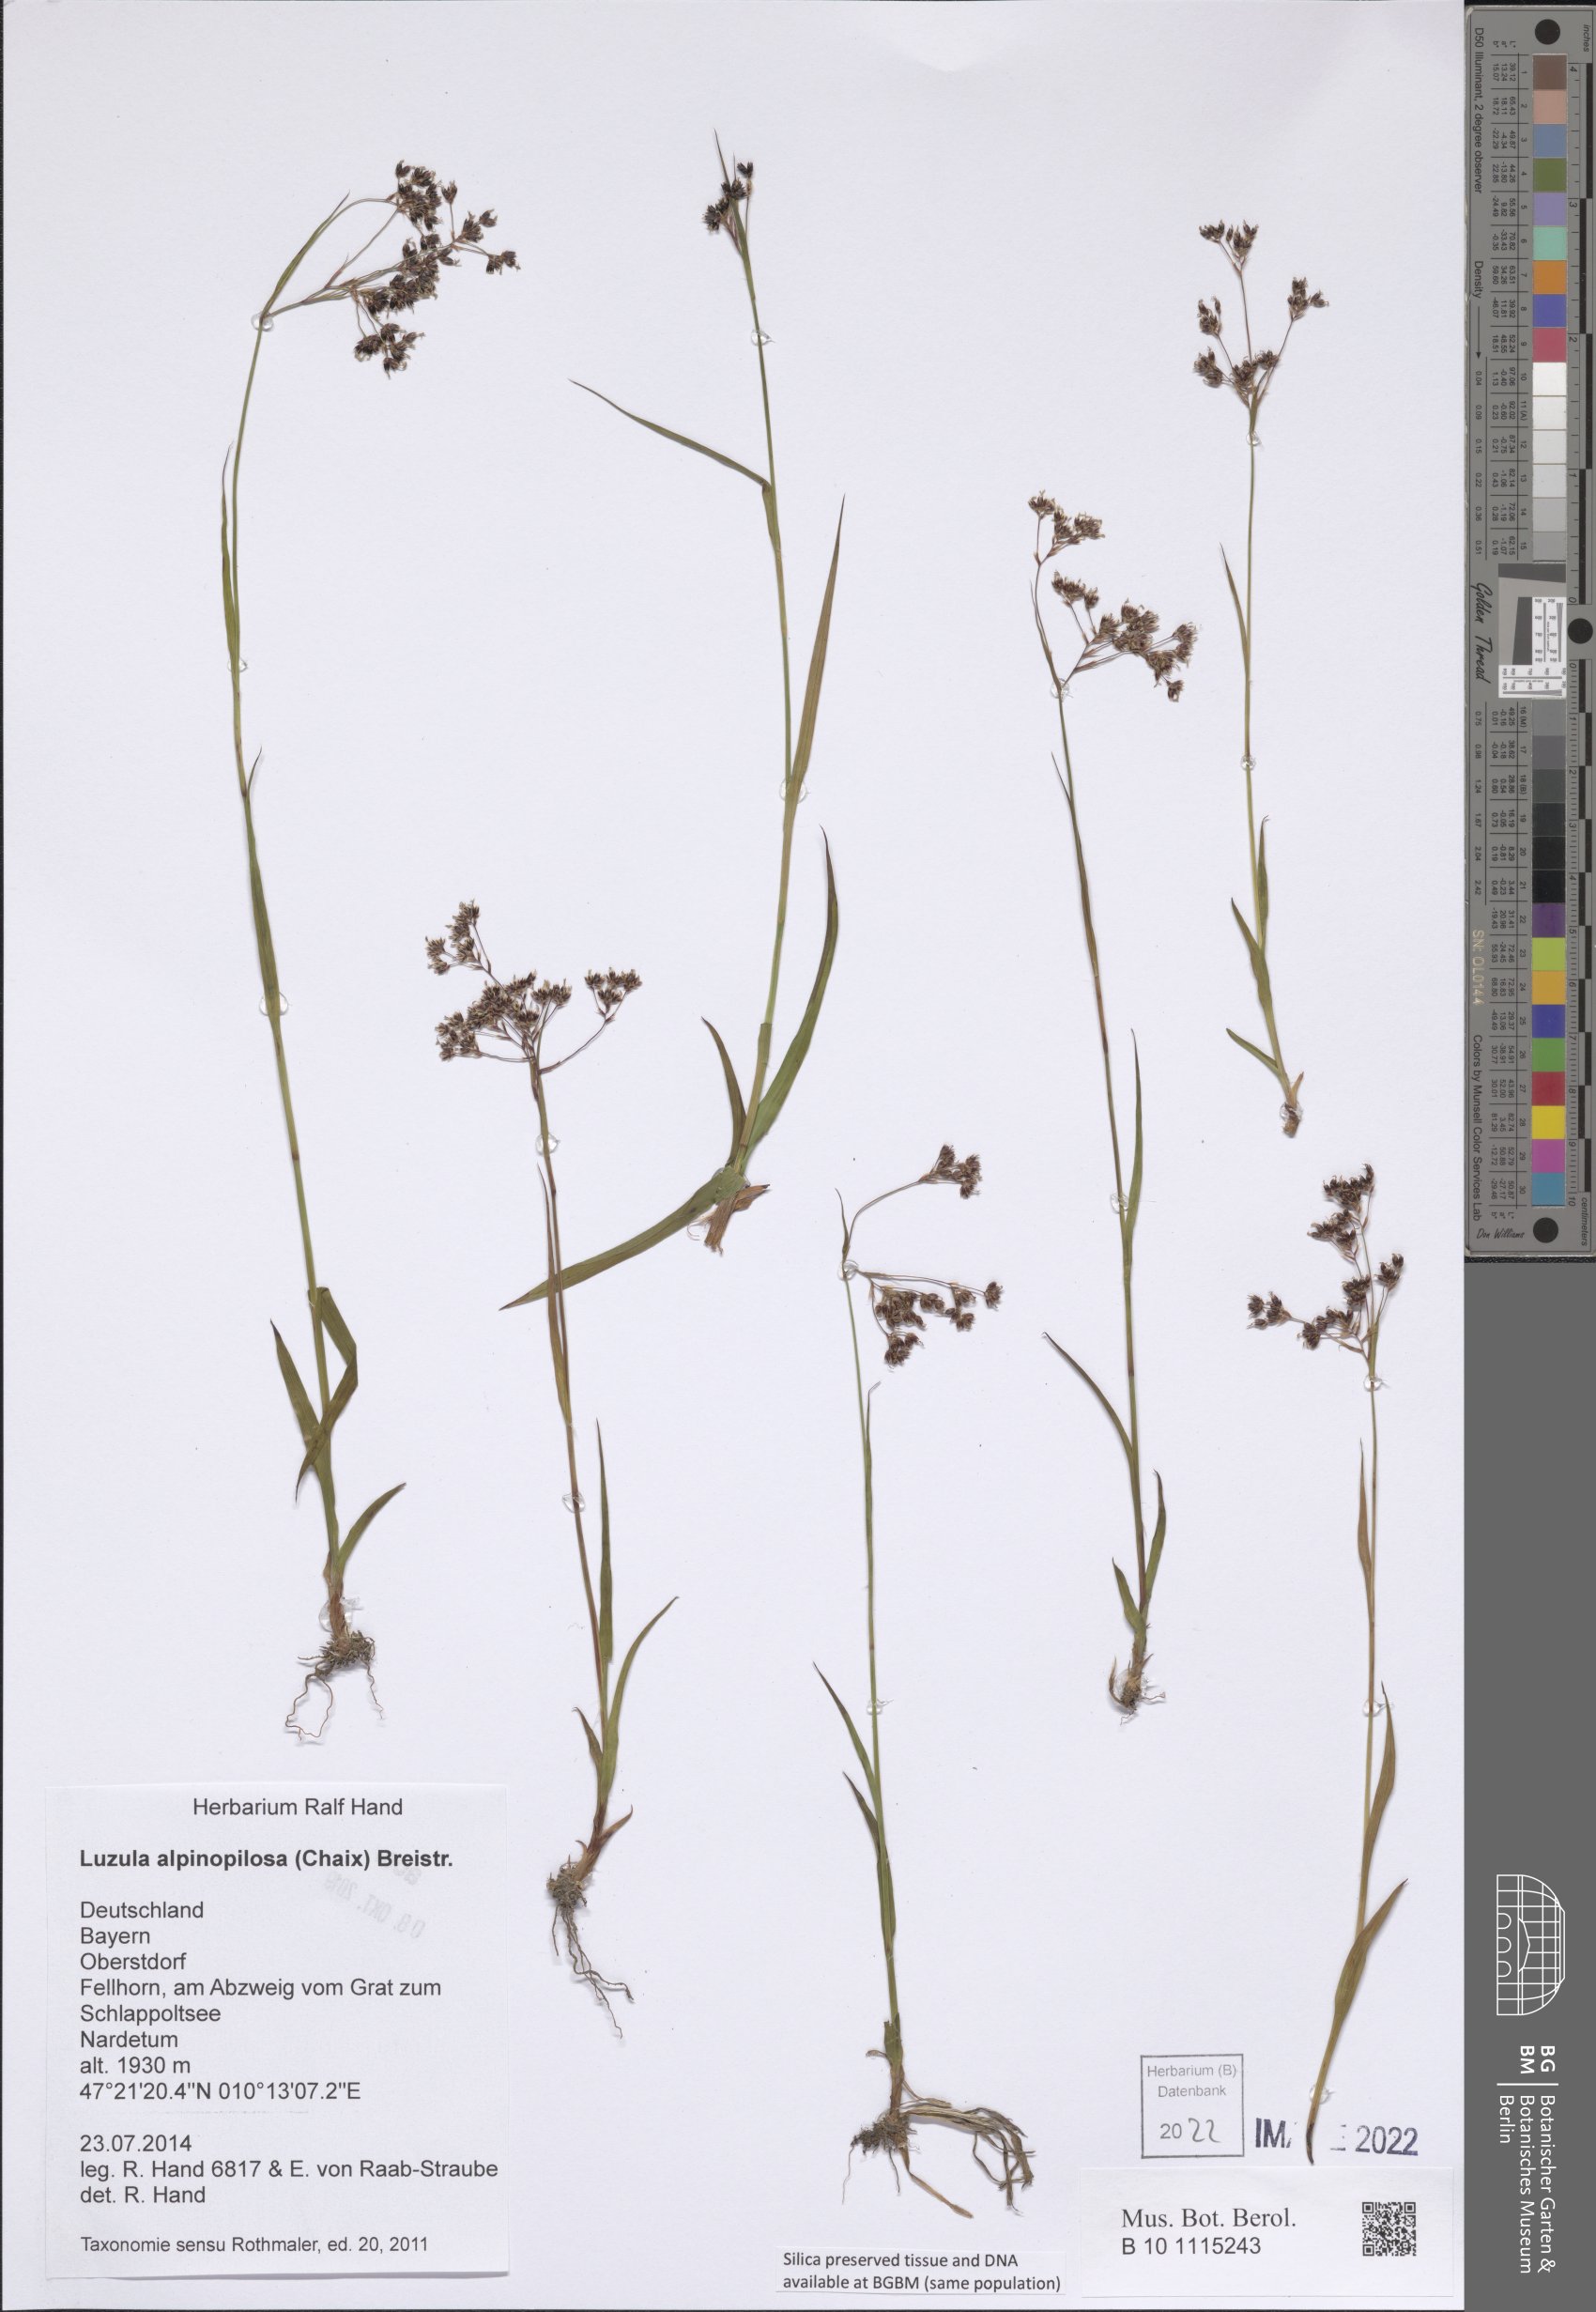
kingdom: Plantae
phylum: Tracheophyta
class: Liliopsida
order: Poales
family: Juncaceae
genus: Luzula
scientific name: Luzula alpinopilosa
